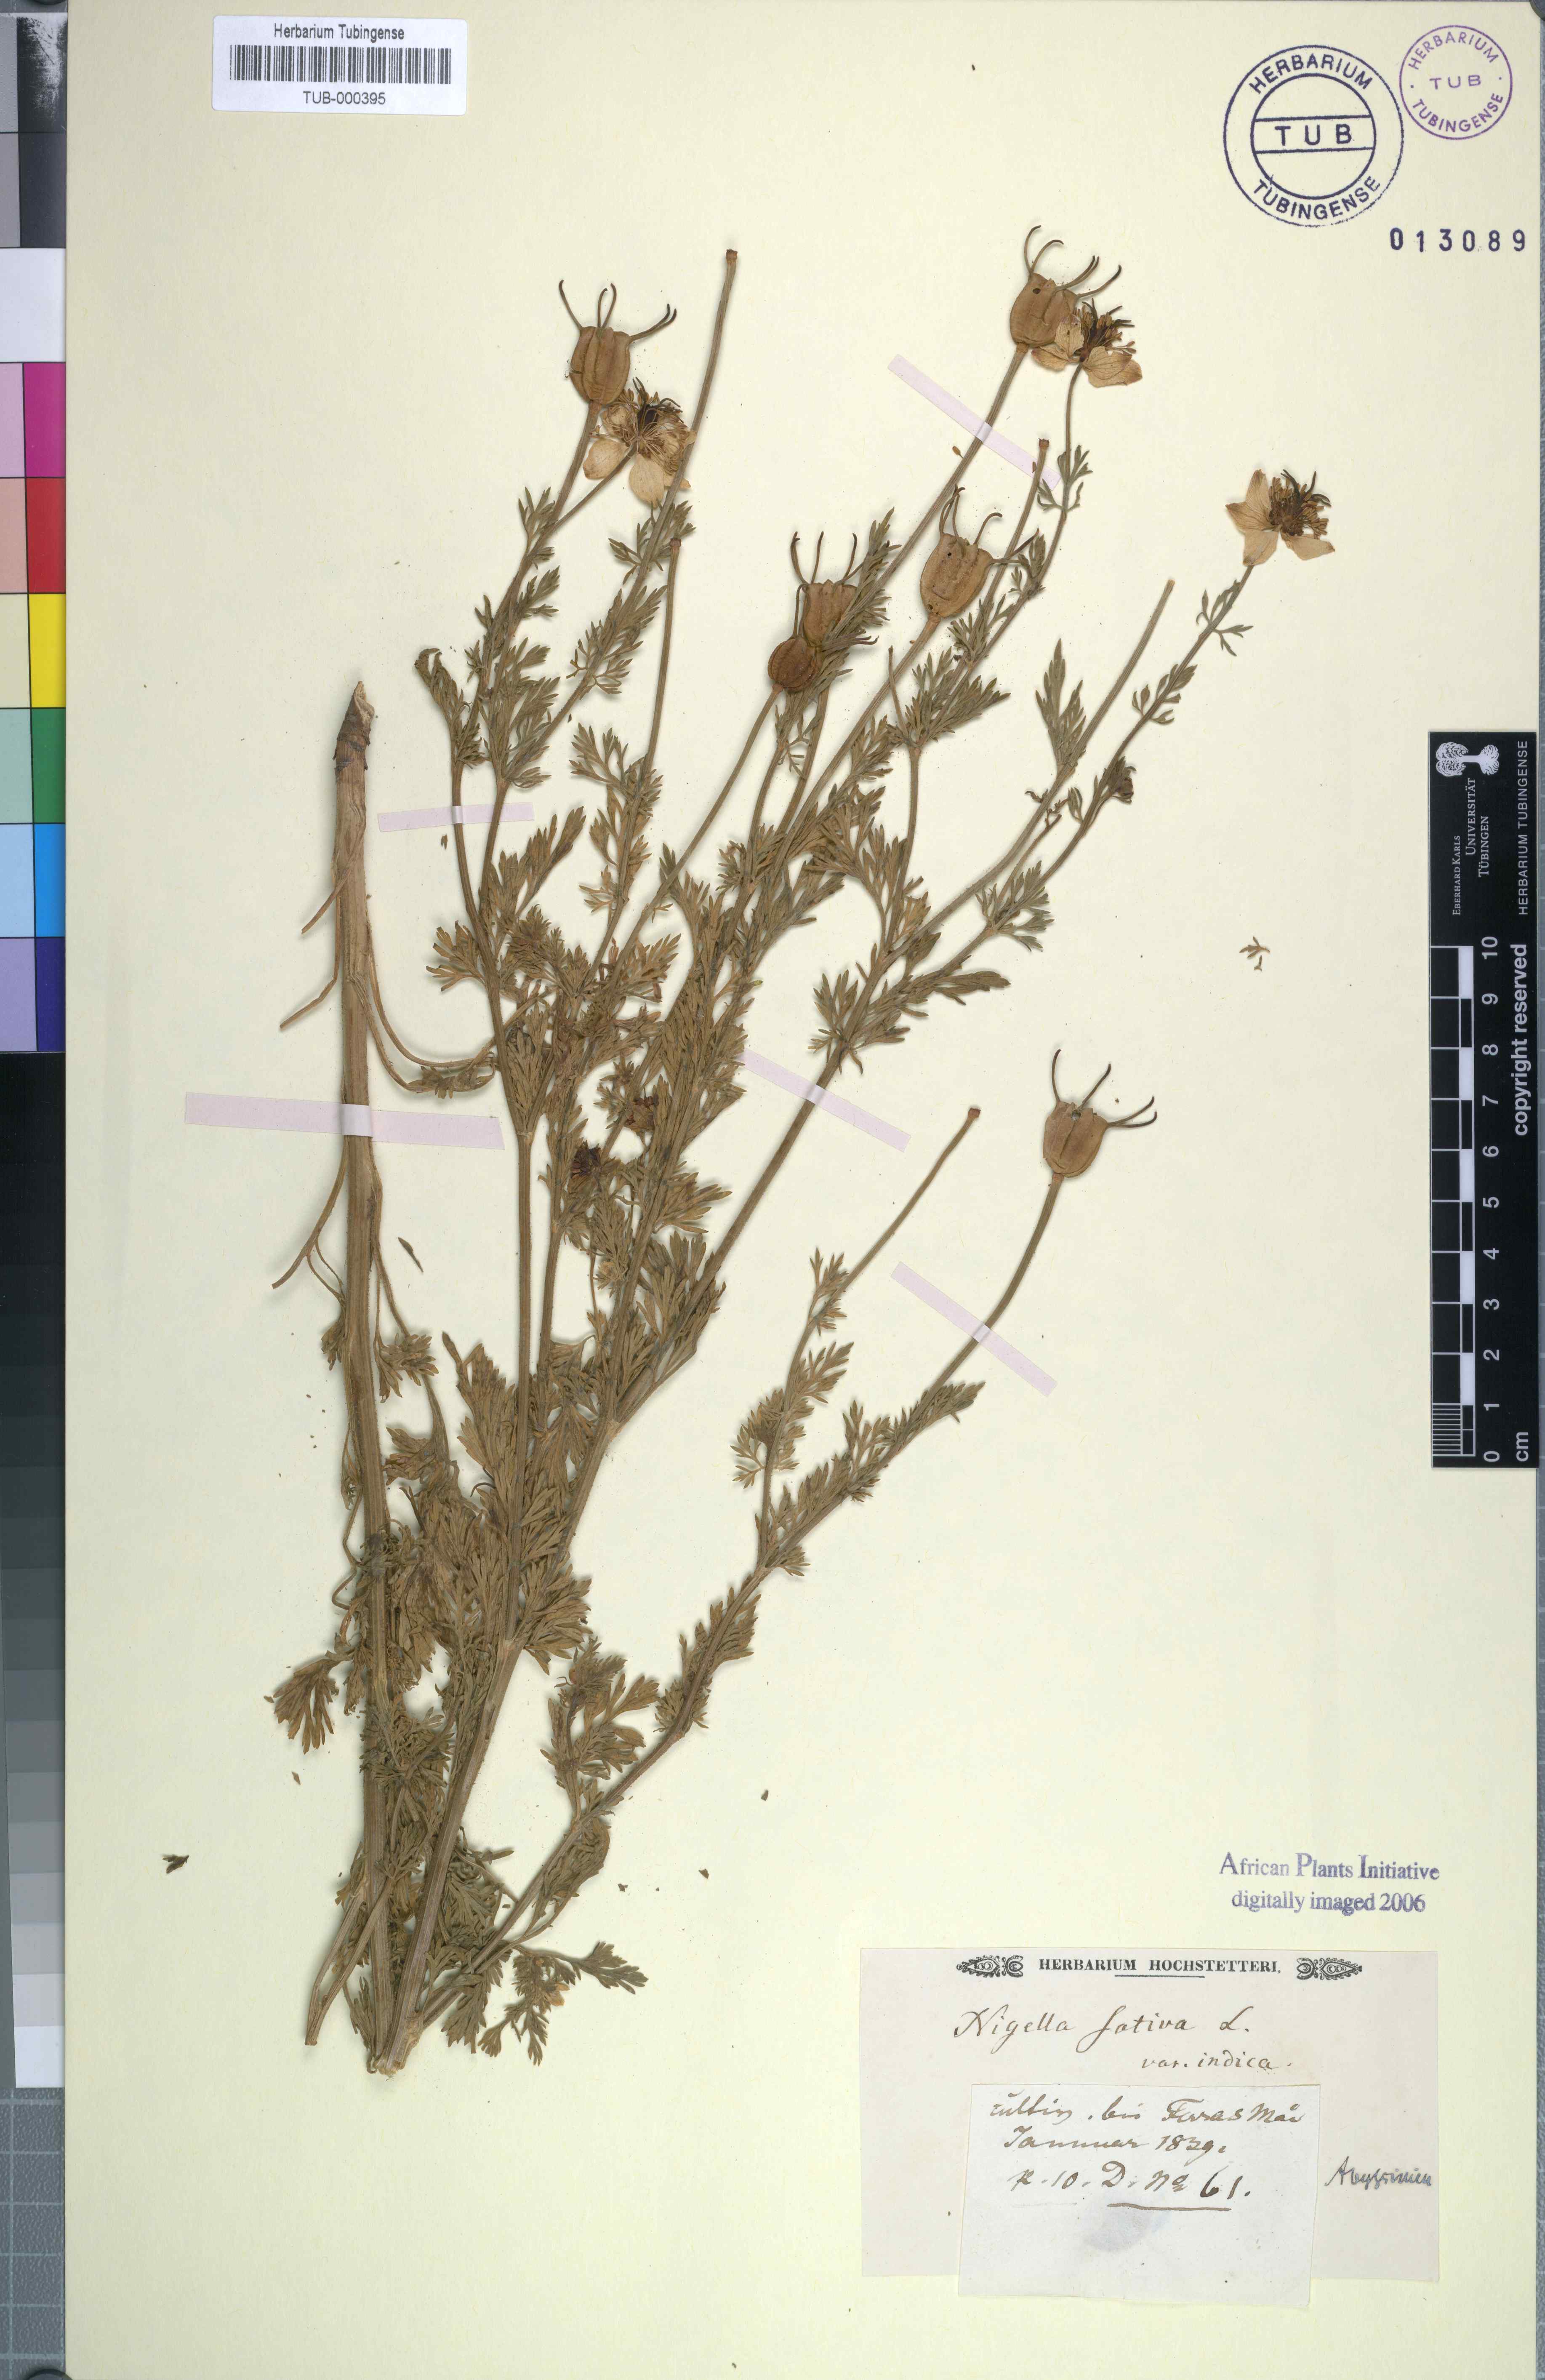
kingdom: Plantae
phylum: Tracheophyta
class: Magnoliopsida
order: Ranunculales
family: Ranunculaceae
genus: Nigella
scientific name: Nigella sativa
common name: Black-cumin
